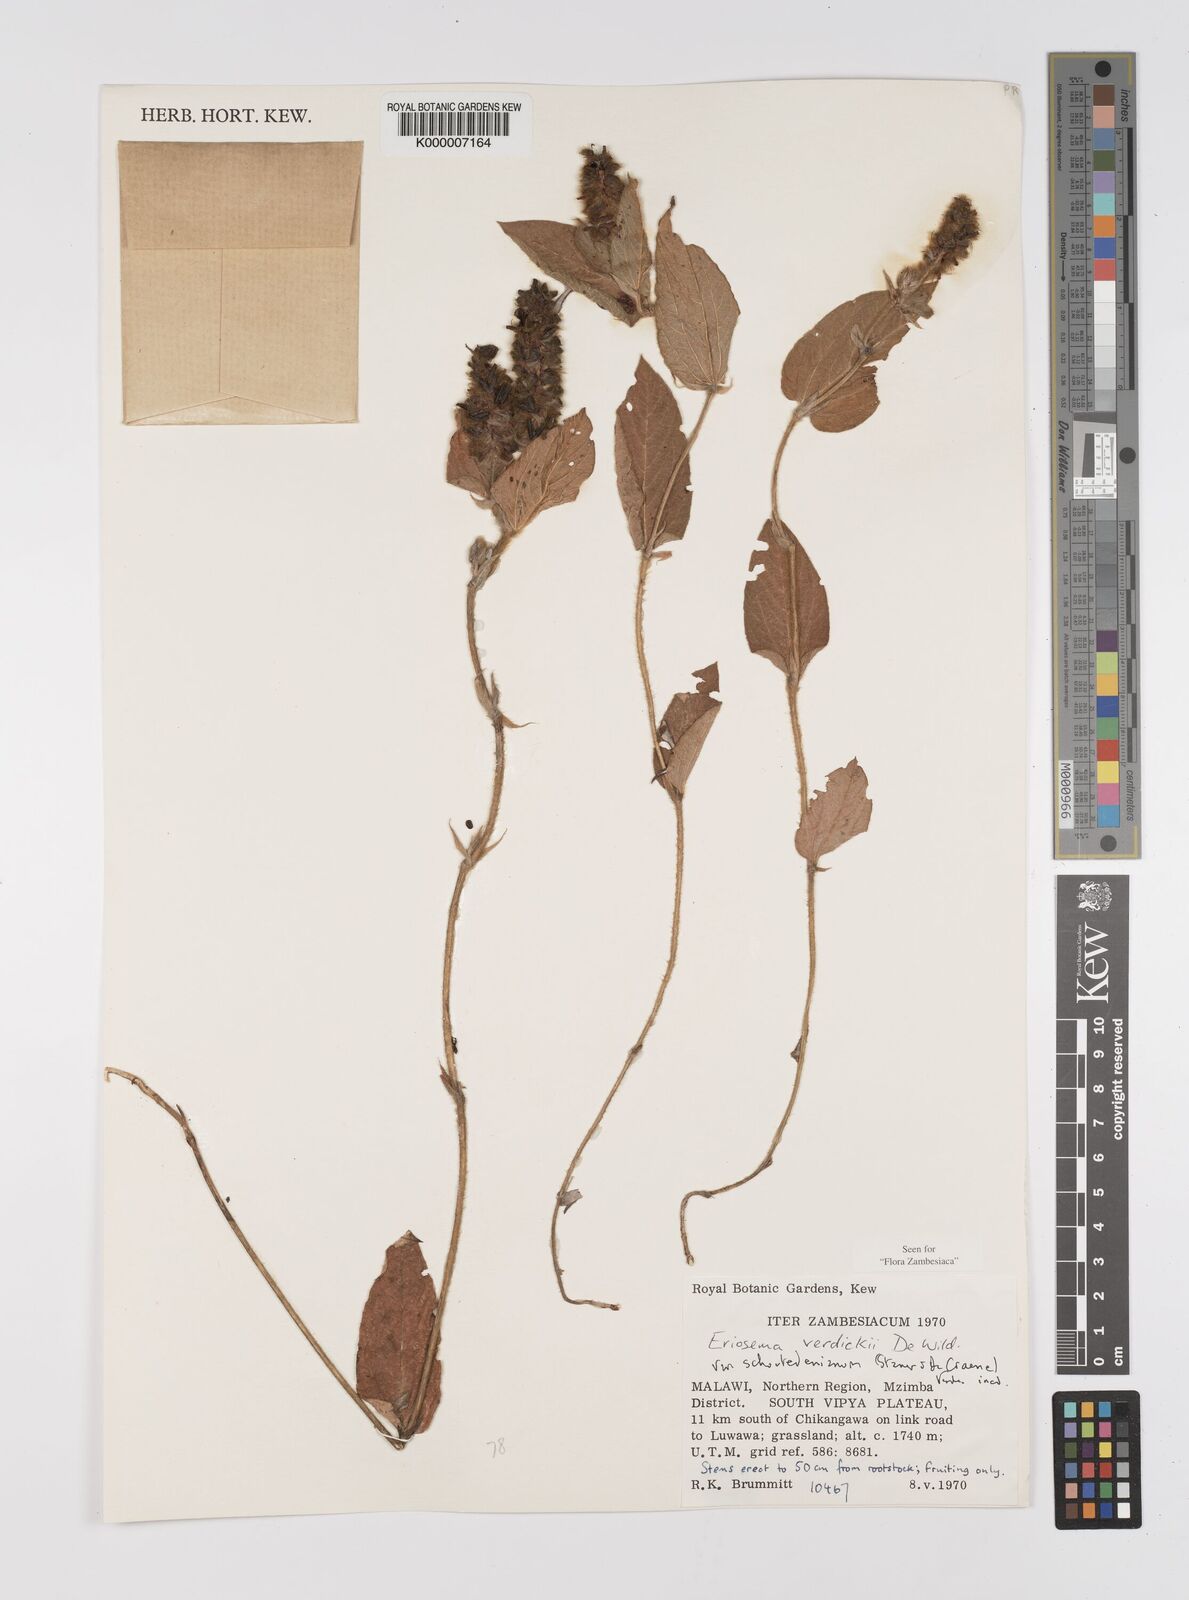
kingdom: Plantae
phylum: Tracheophyta
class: Magnoliopsida
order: Fabales
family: Fabaceae
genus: Eriosema
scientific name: Eriosema verdickii
